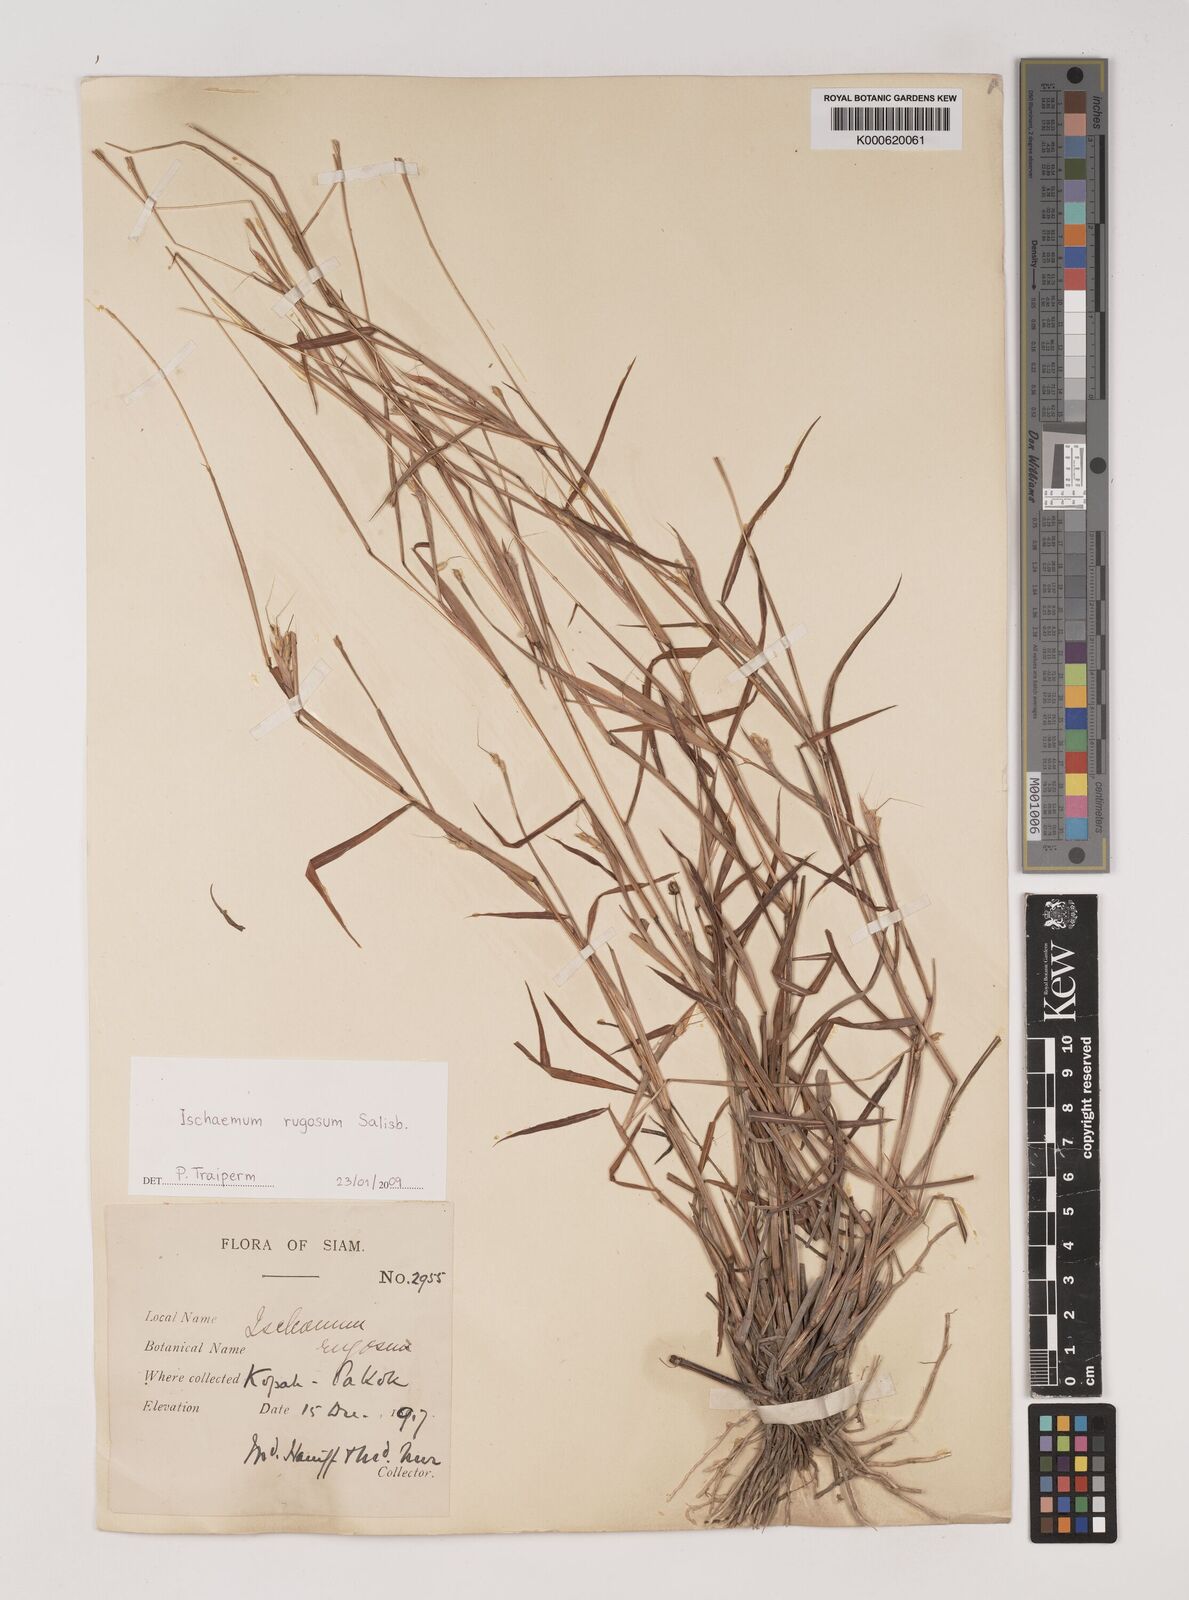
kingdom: Plantae
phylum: Tracheophyta
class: Liliopsida
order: Poales
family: Poaceae
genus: Ischaemum
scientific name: Ischaemum rugosum
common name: Saramatta grass
